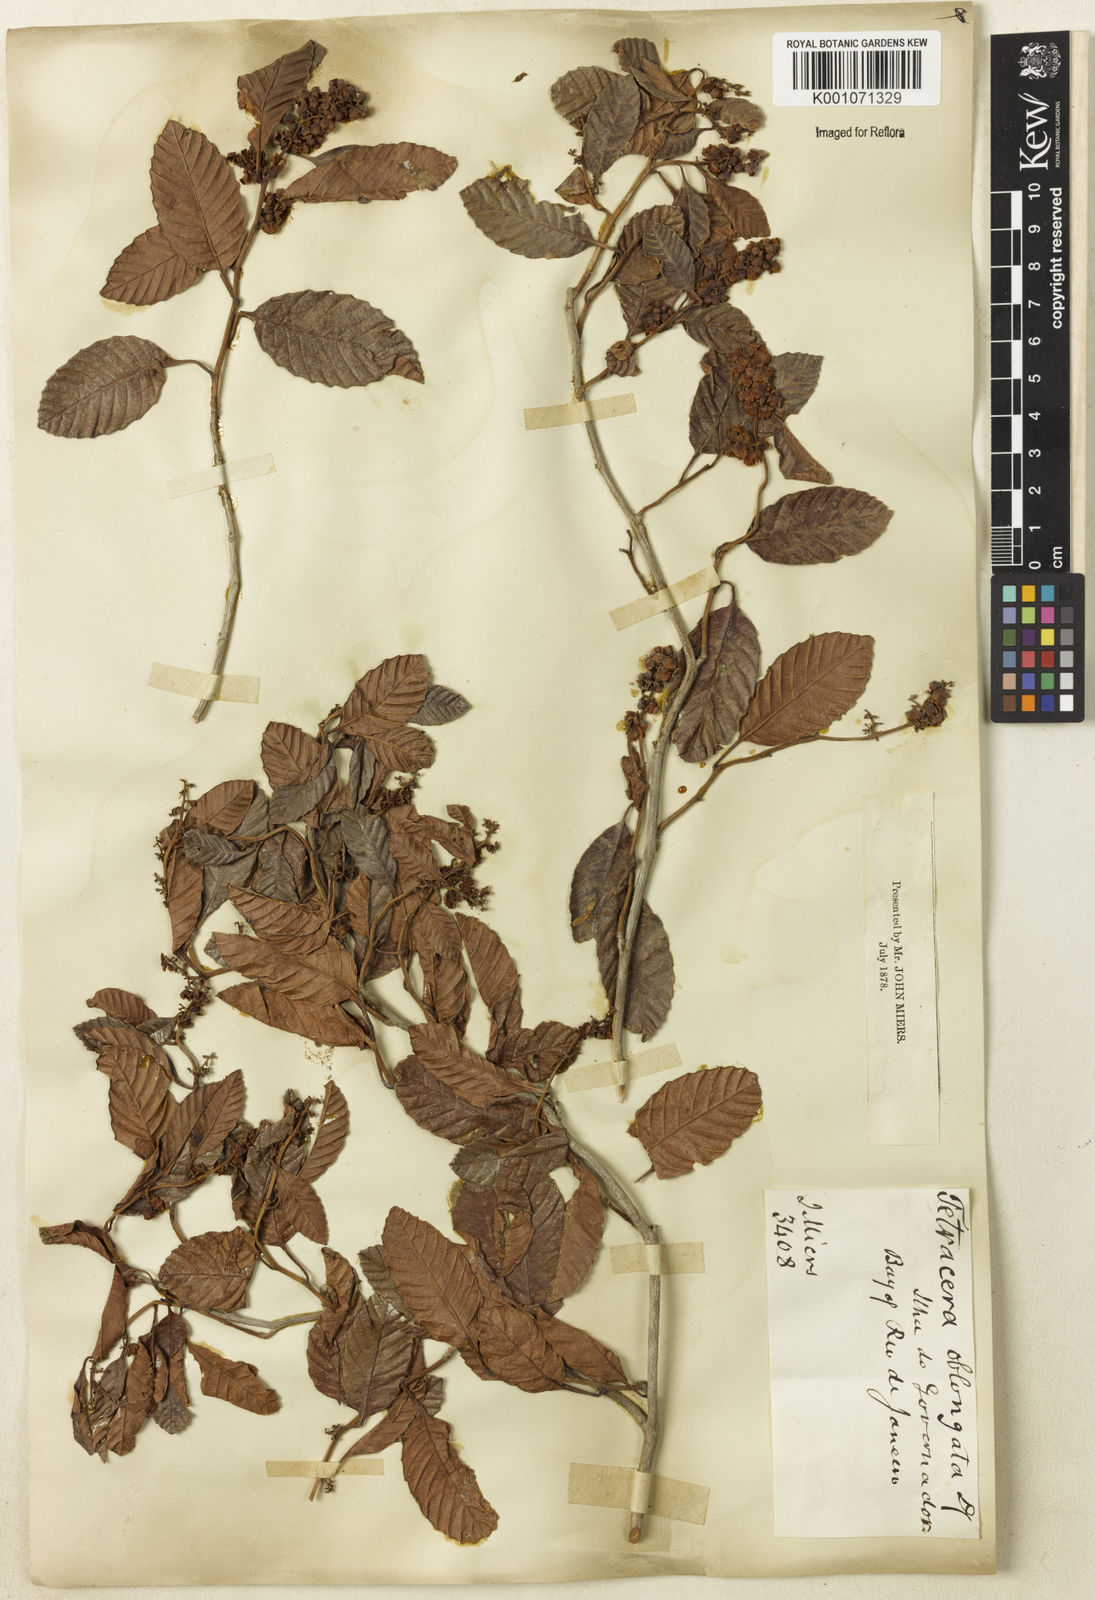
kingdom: Plantae
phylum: Tracheophyta
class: Magnoliopsida
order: Dilleniales
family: Dilleniaceae
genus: Tetracera
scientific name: Tetracera oblongata
